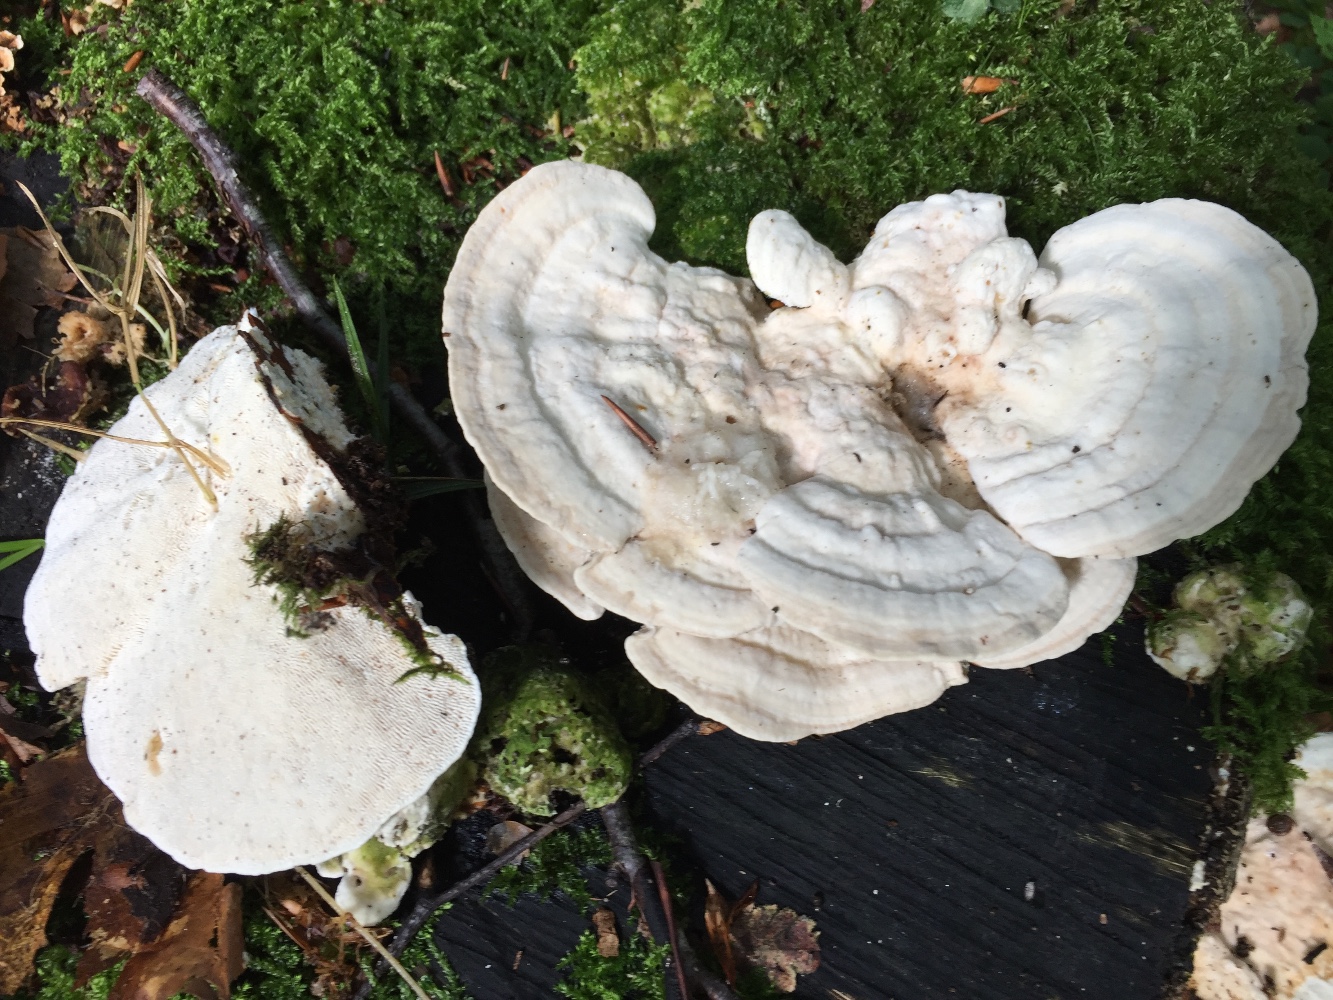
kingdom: Fungi
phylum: Basidiomycota
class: Agaricomycetes
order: Polyporales
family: Polyporaceae
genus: Trametes
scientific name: Trametes gibbosa
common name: puklet læderporesvamp
